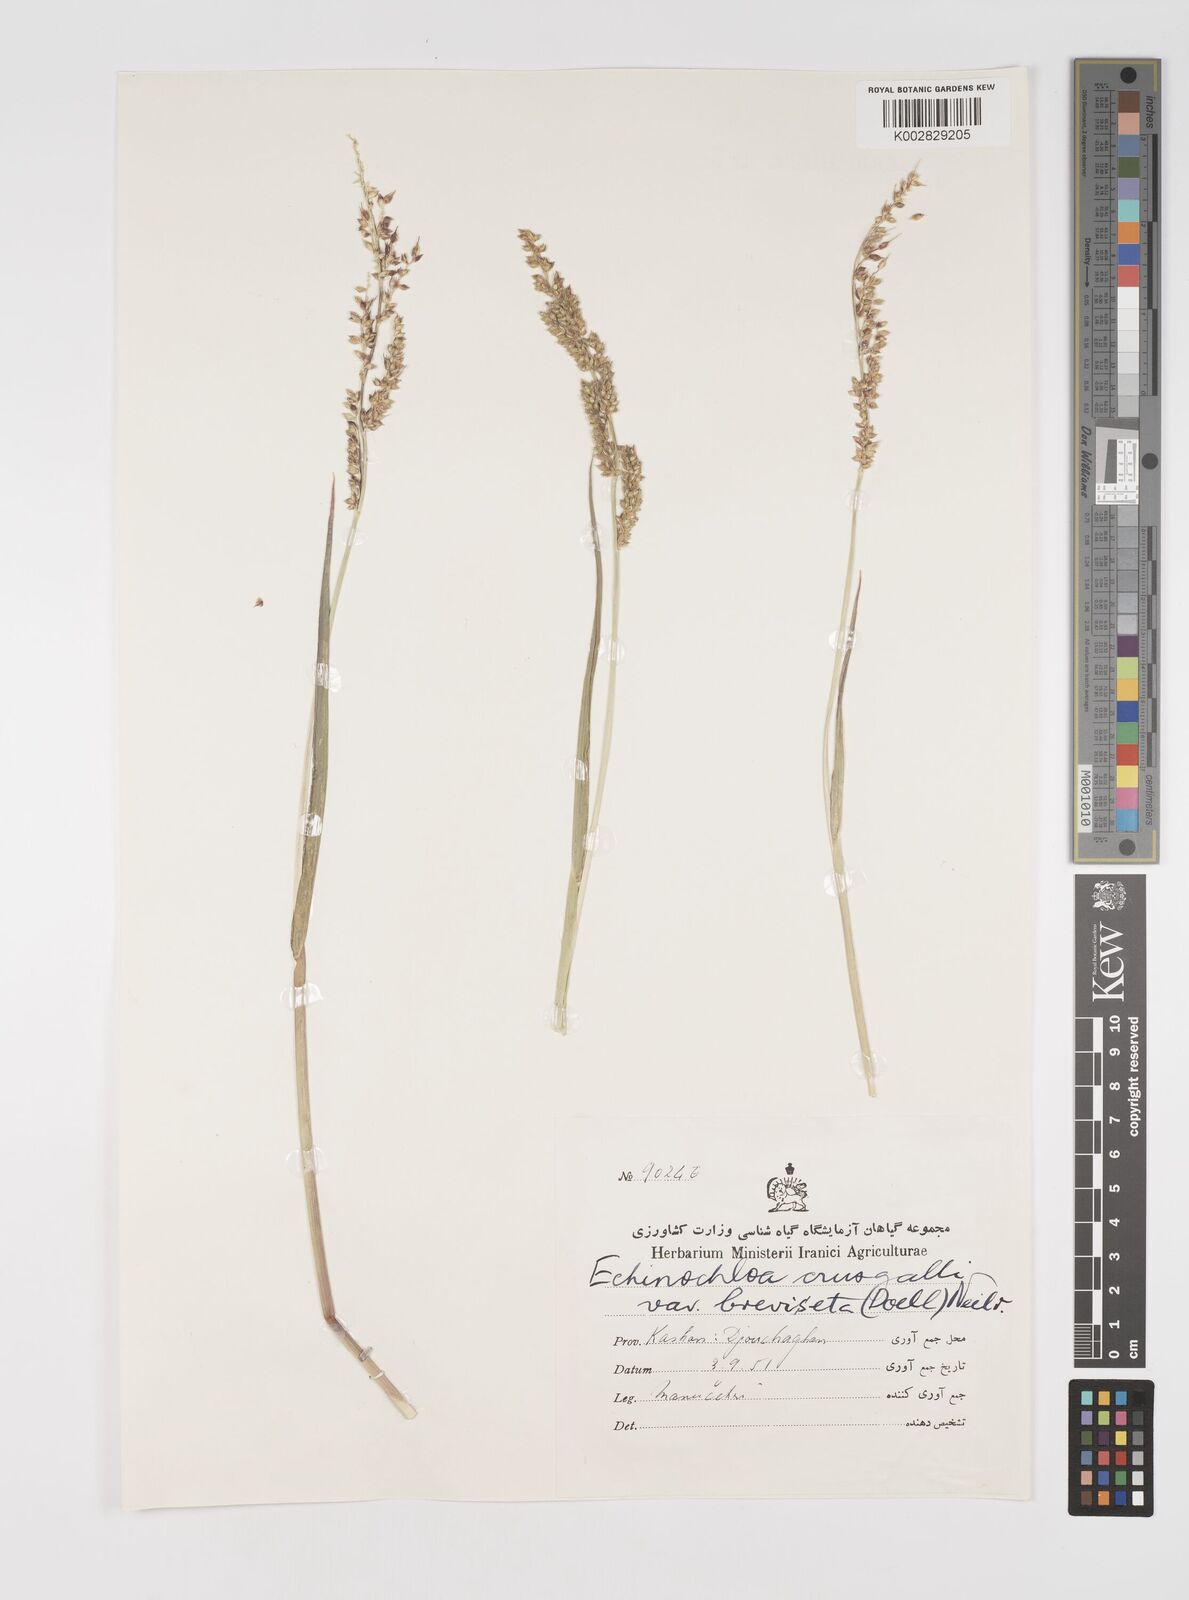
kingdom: Plantae
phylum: Tracheophyta
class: Liliopsida
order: Poales
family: Poaceae
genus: Echinochloa
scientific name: Echinochloa crus-galli
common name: Cockspur
